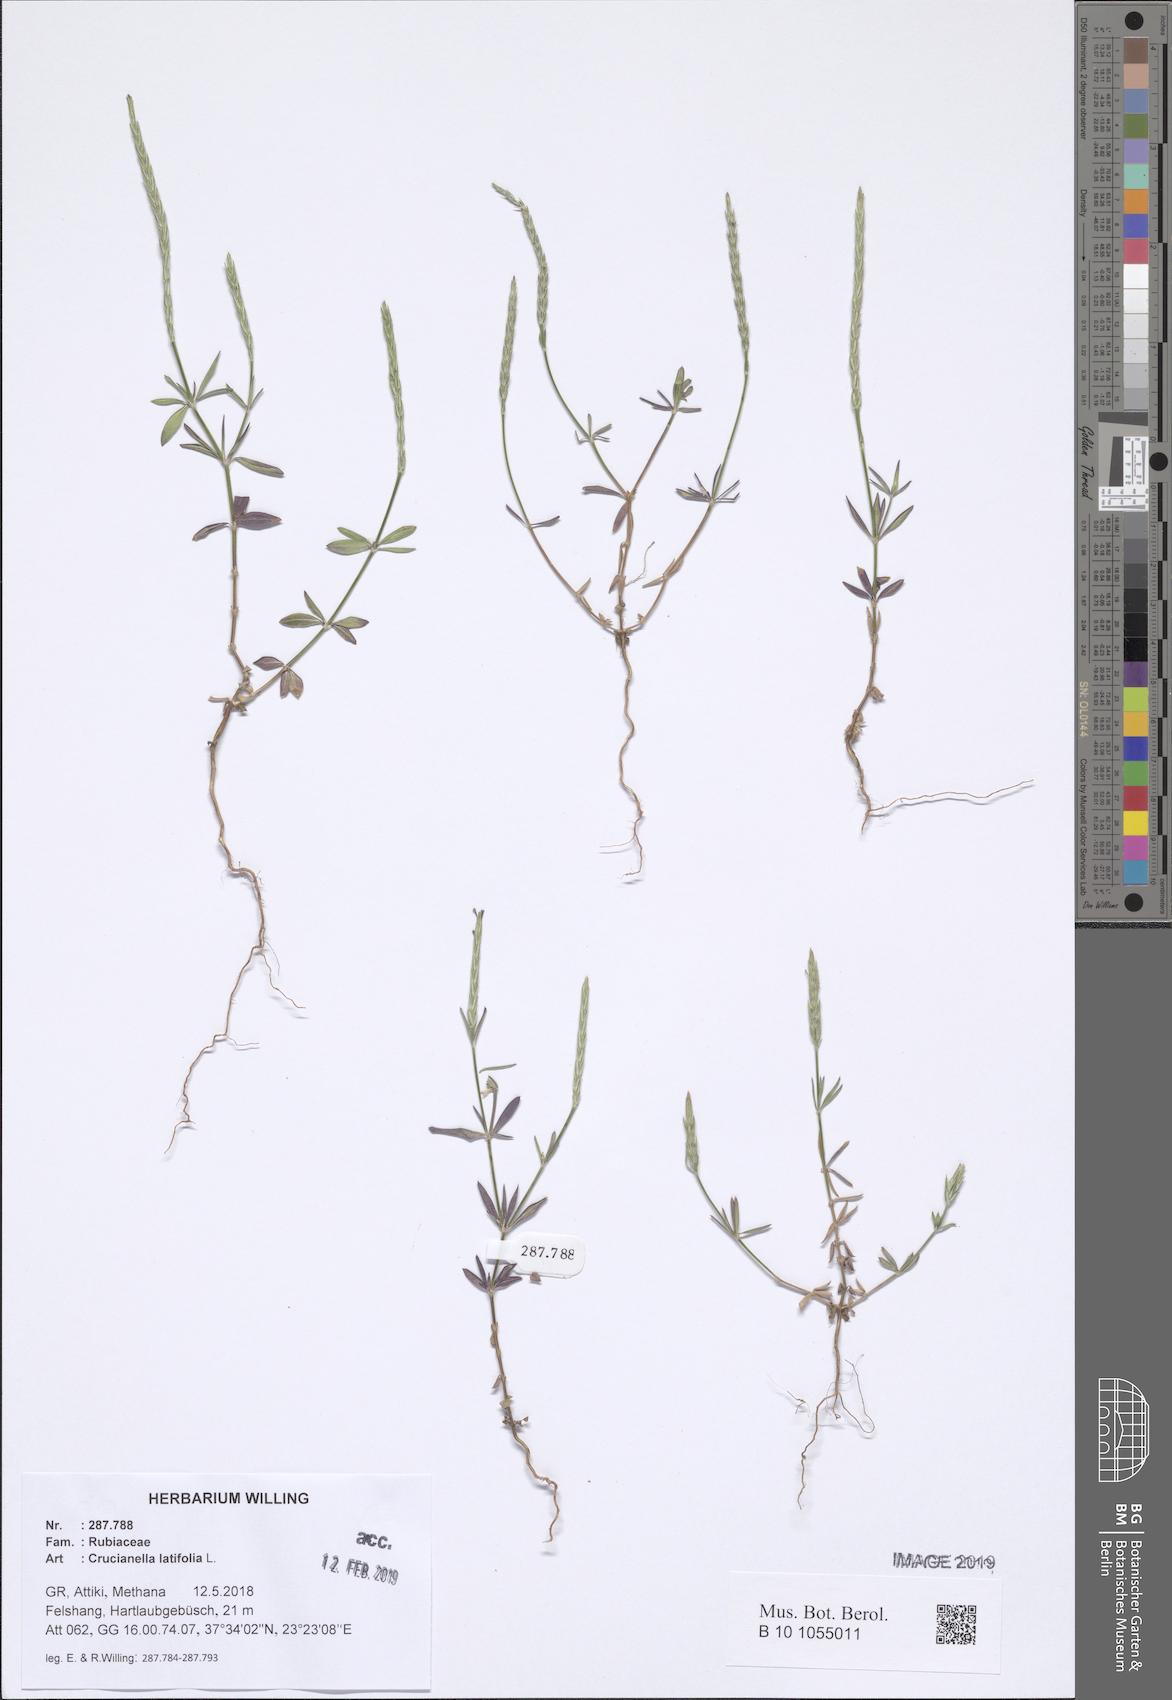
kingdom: Plantae
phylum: Tracheophyta
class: Magnoliopsida
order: Gentianales
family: Rubiaceae
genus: Crucianella
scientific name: Crucianella latifolia
